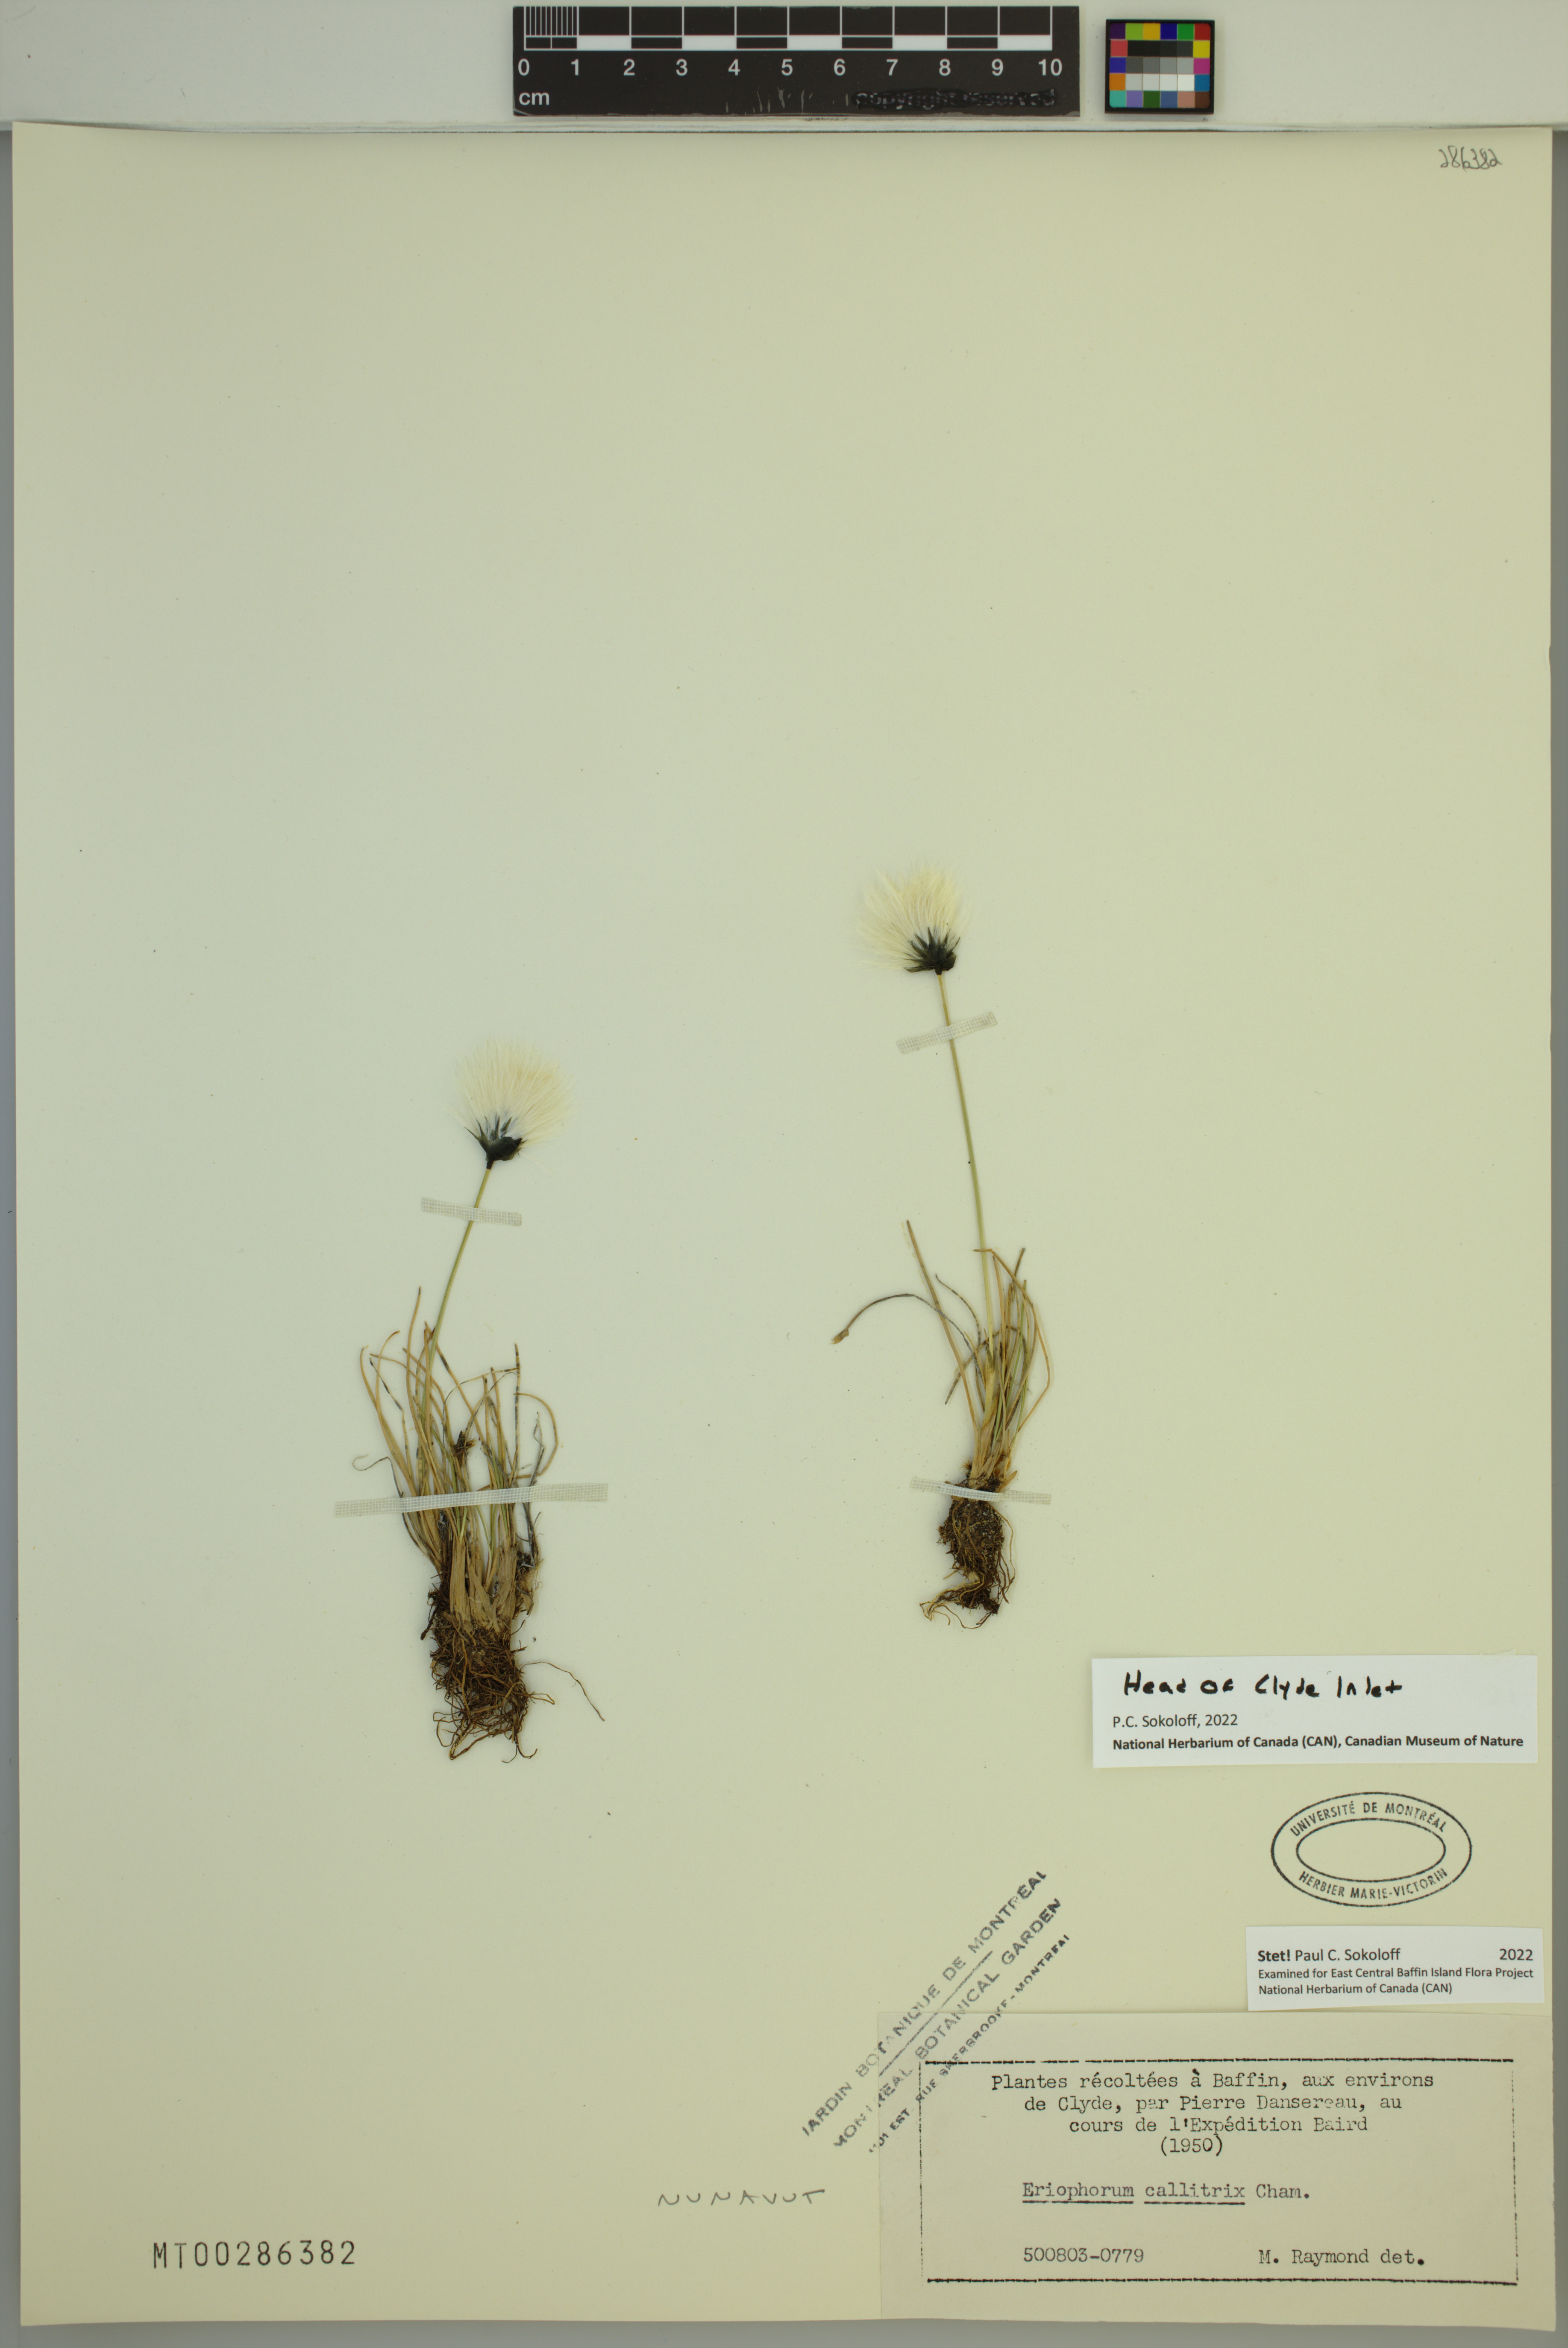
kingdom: Plantae
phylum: Tracheophyta
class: Liliopsida
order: Poales
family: Cyperaceae
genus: Eriophorum
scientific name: Eriophorum callitrix
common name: Arctic cottongrass
